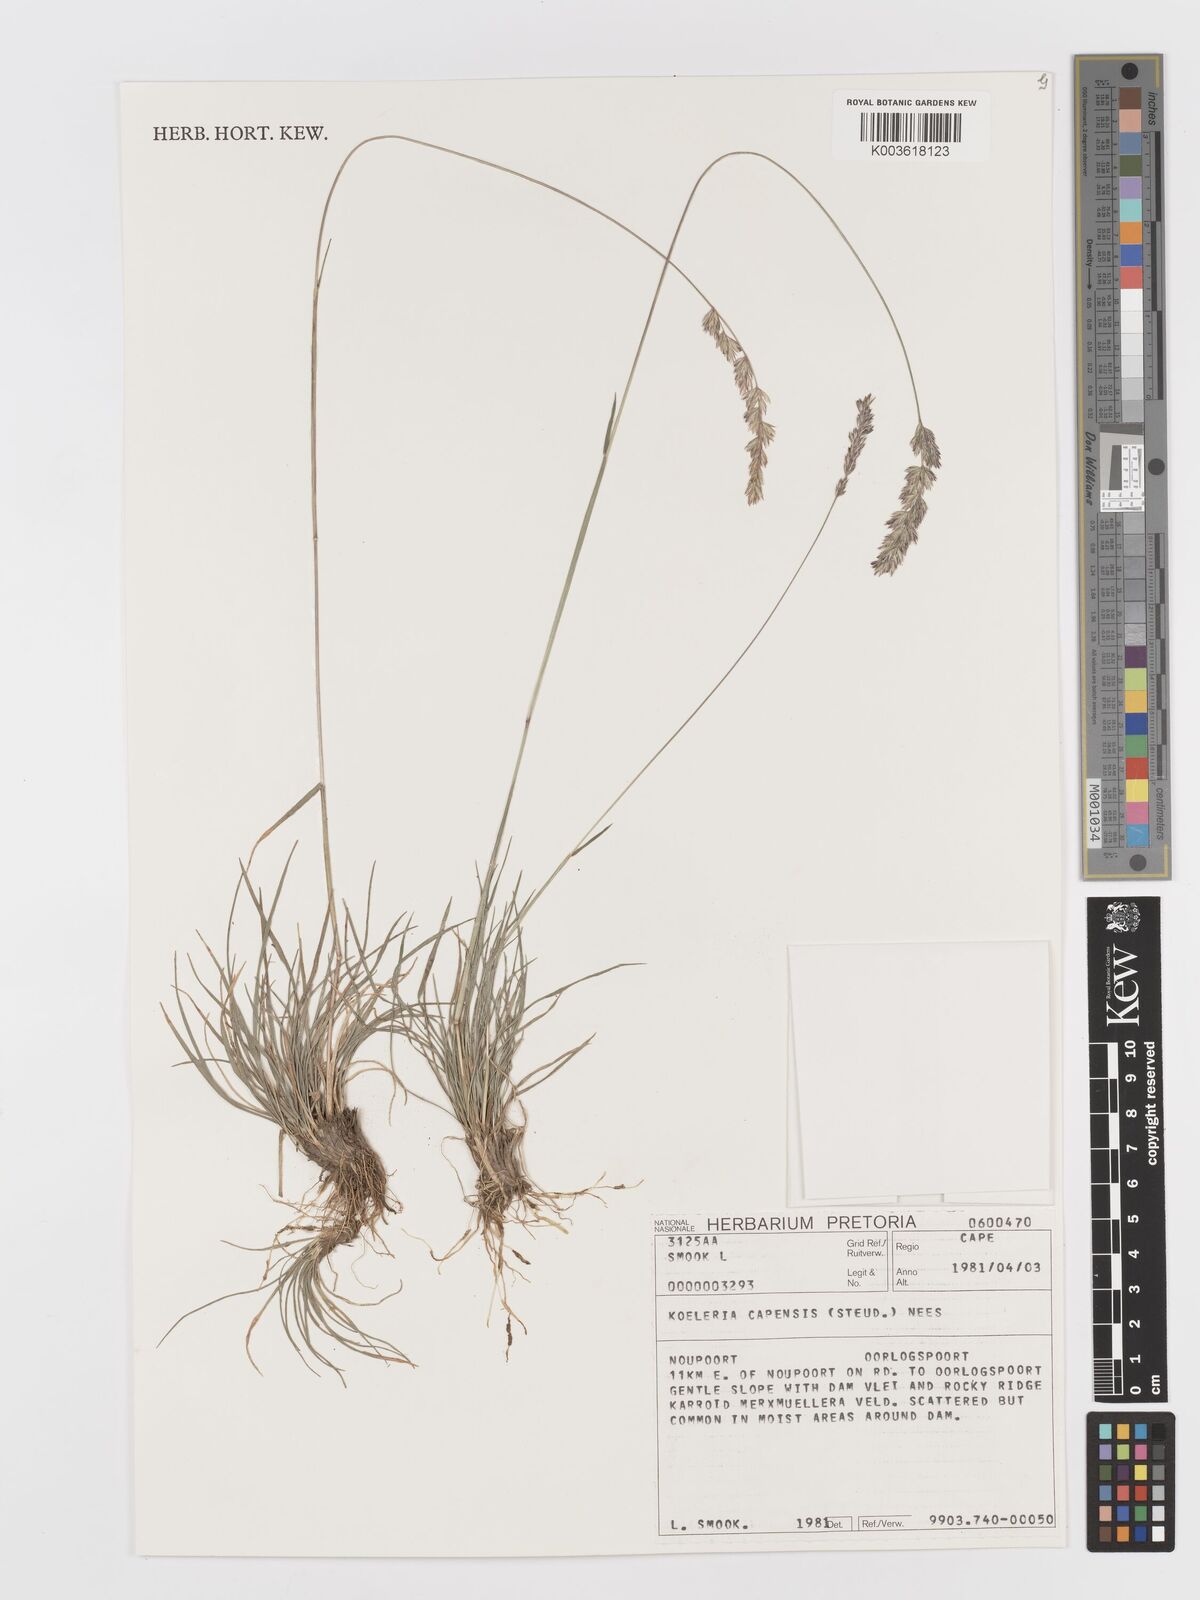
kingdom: Plantae
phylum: Tracheophyta
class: Liliopsida
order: Poales
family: Poaceae
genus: Koeleria
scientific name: Koeleria capensis
